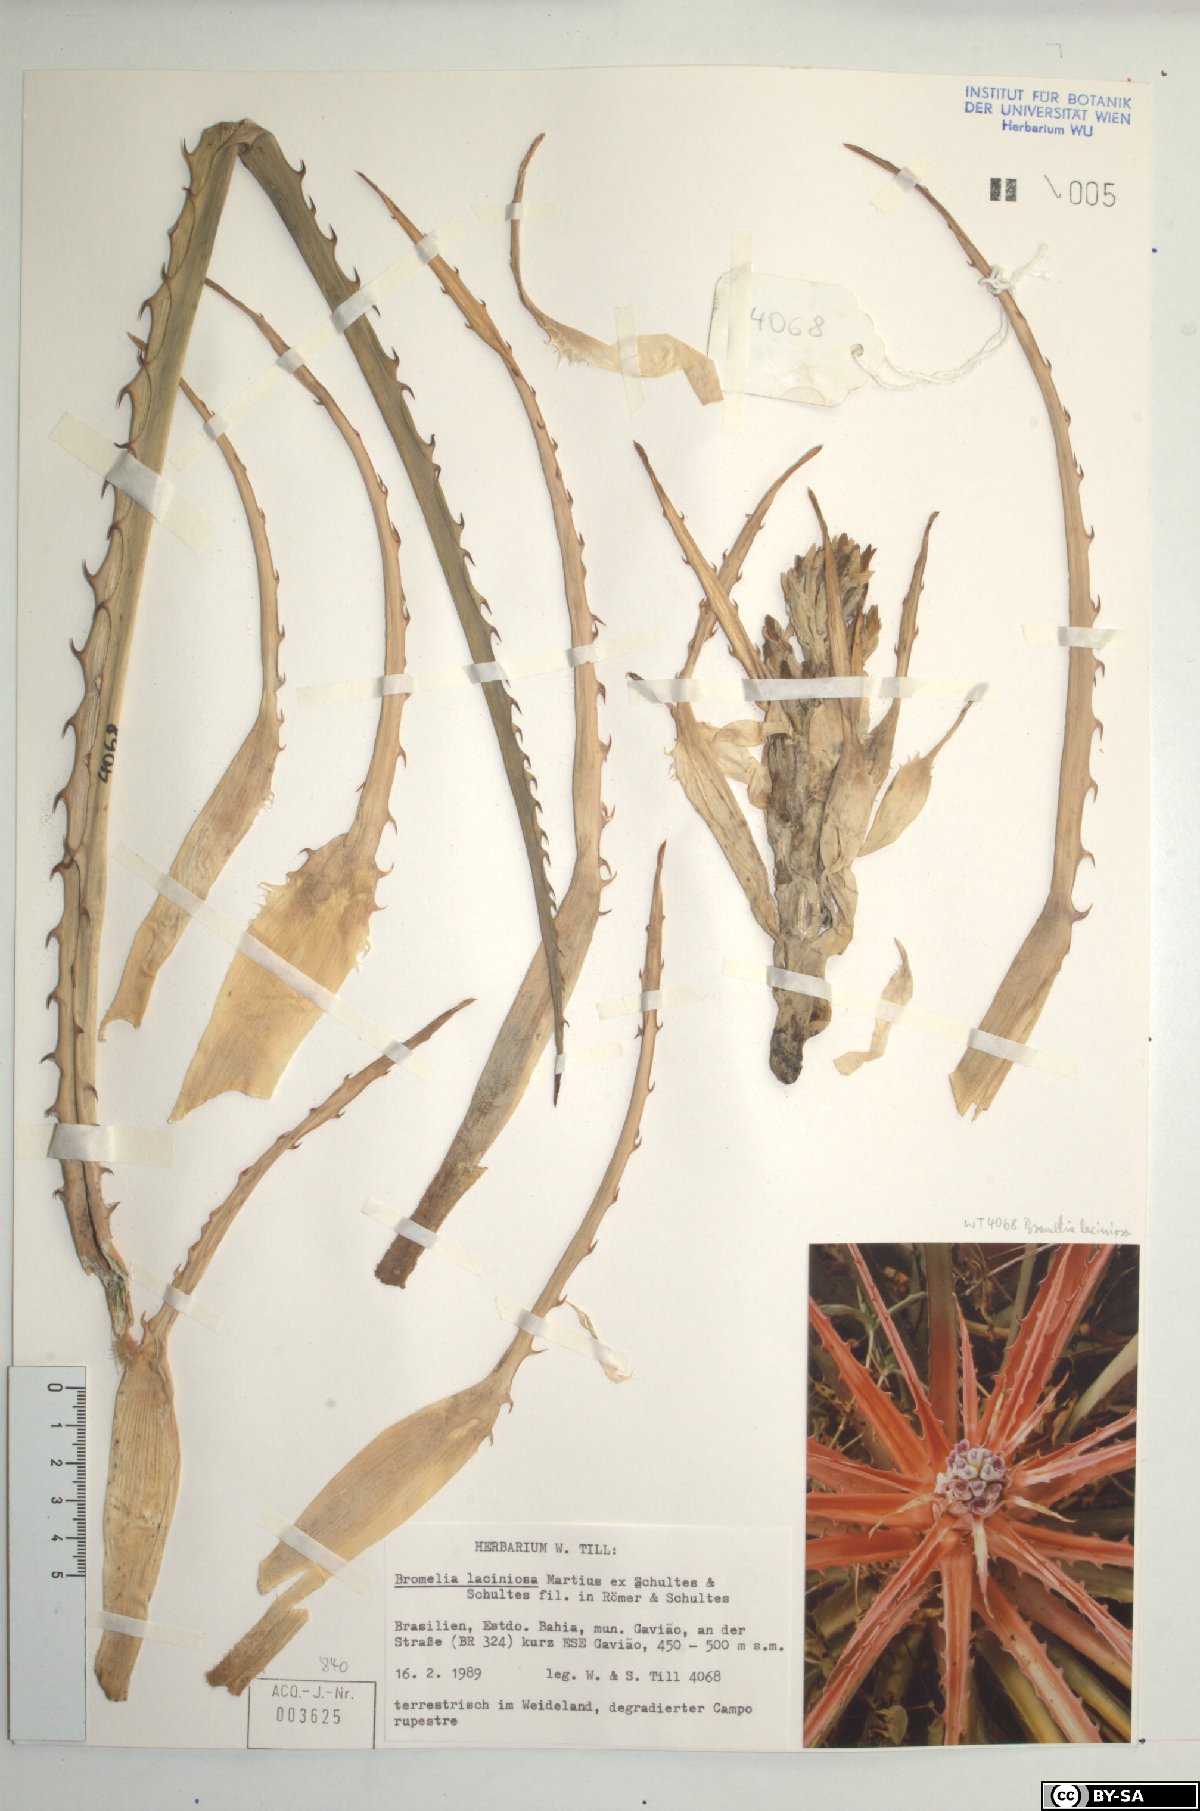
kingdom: Plantae
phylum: Tracheophyta
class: Liliopsida
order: Poales
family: Bromeliaceae
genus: Bromelia
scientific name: Bromelia laciniosa
